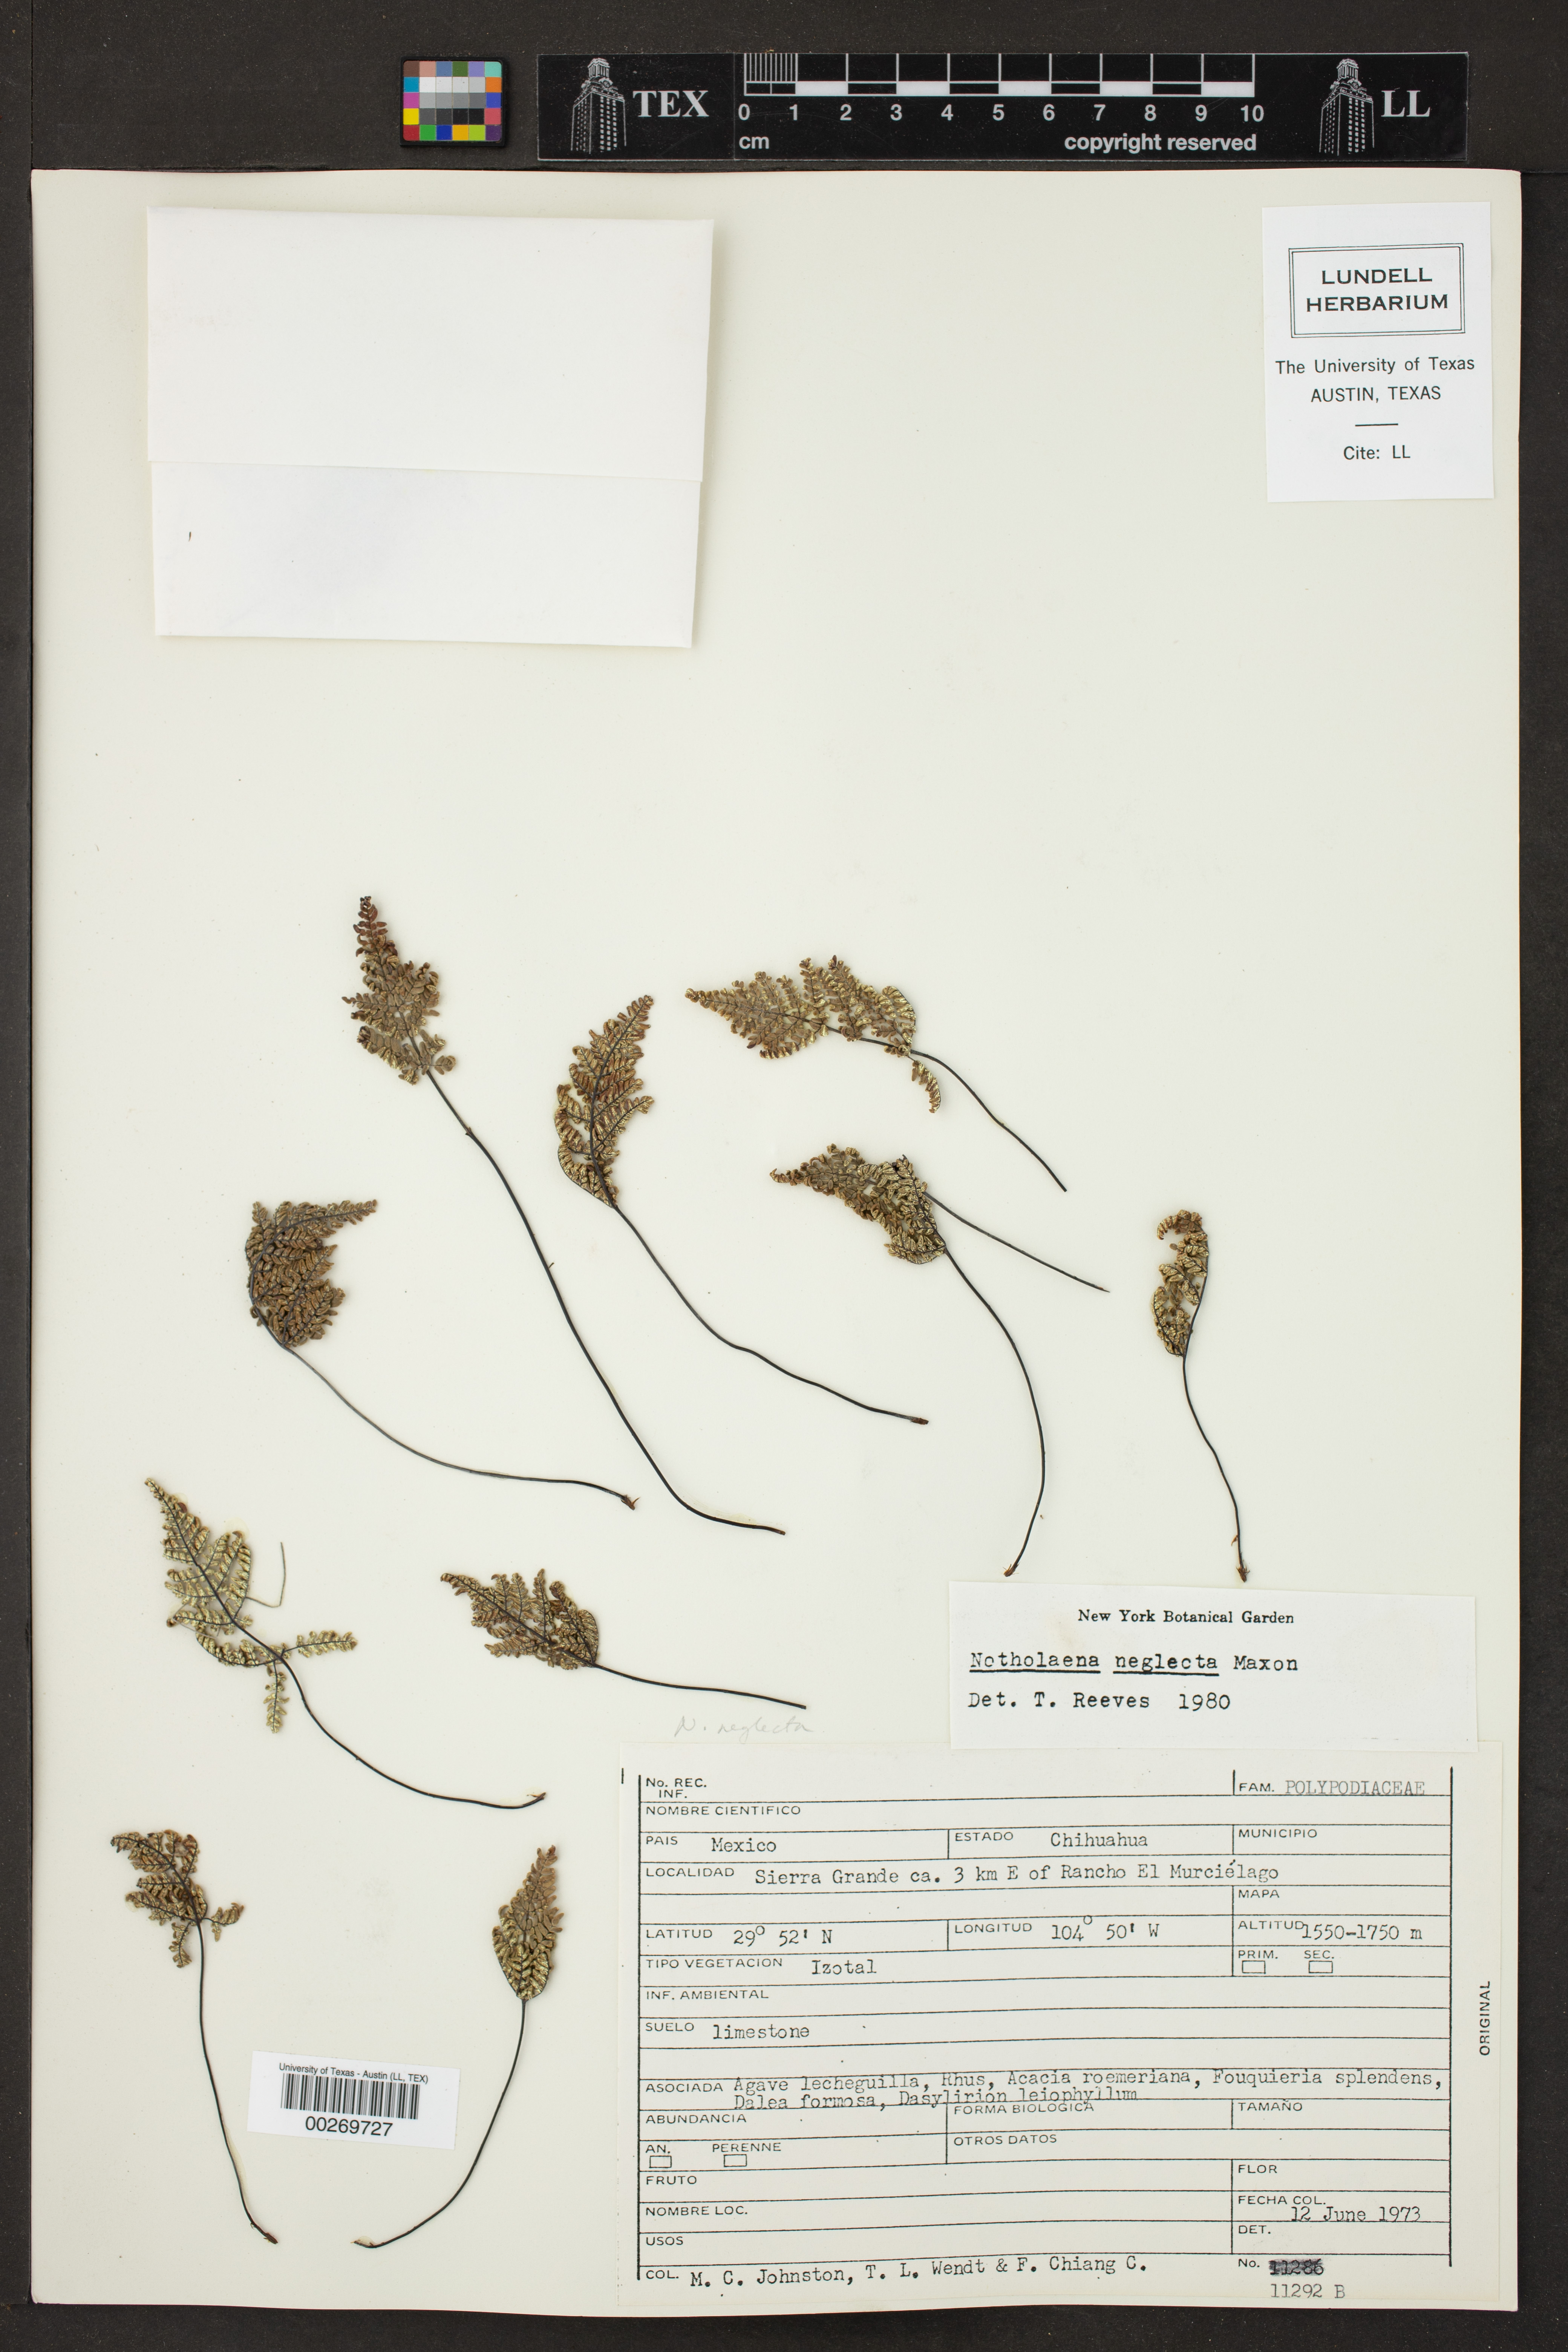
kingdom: Plantae
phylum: Tracheophyta
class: Polypodiopsida
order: Polypodiales
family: Pteridaceae
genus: Notholaena
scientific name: Notholaena schaffneri
